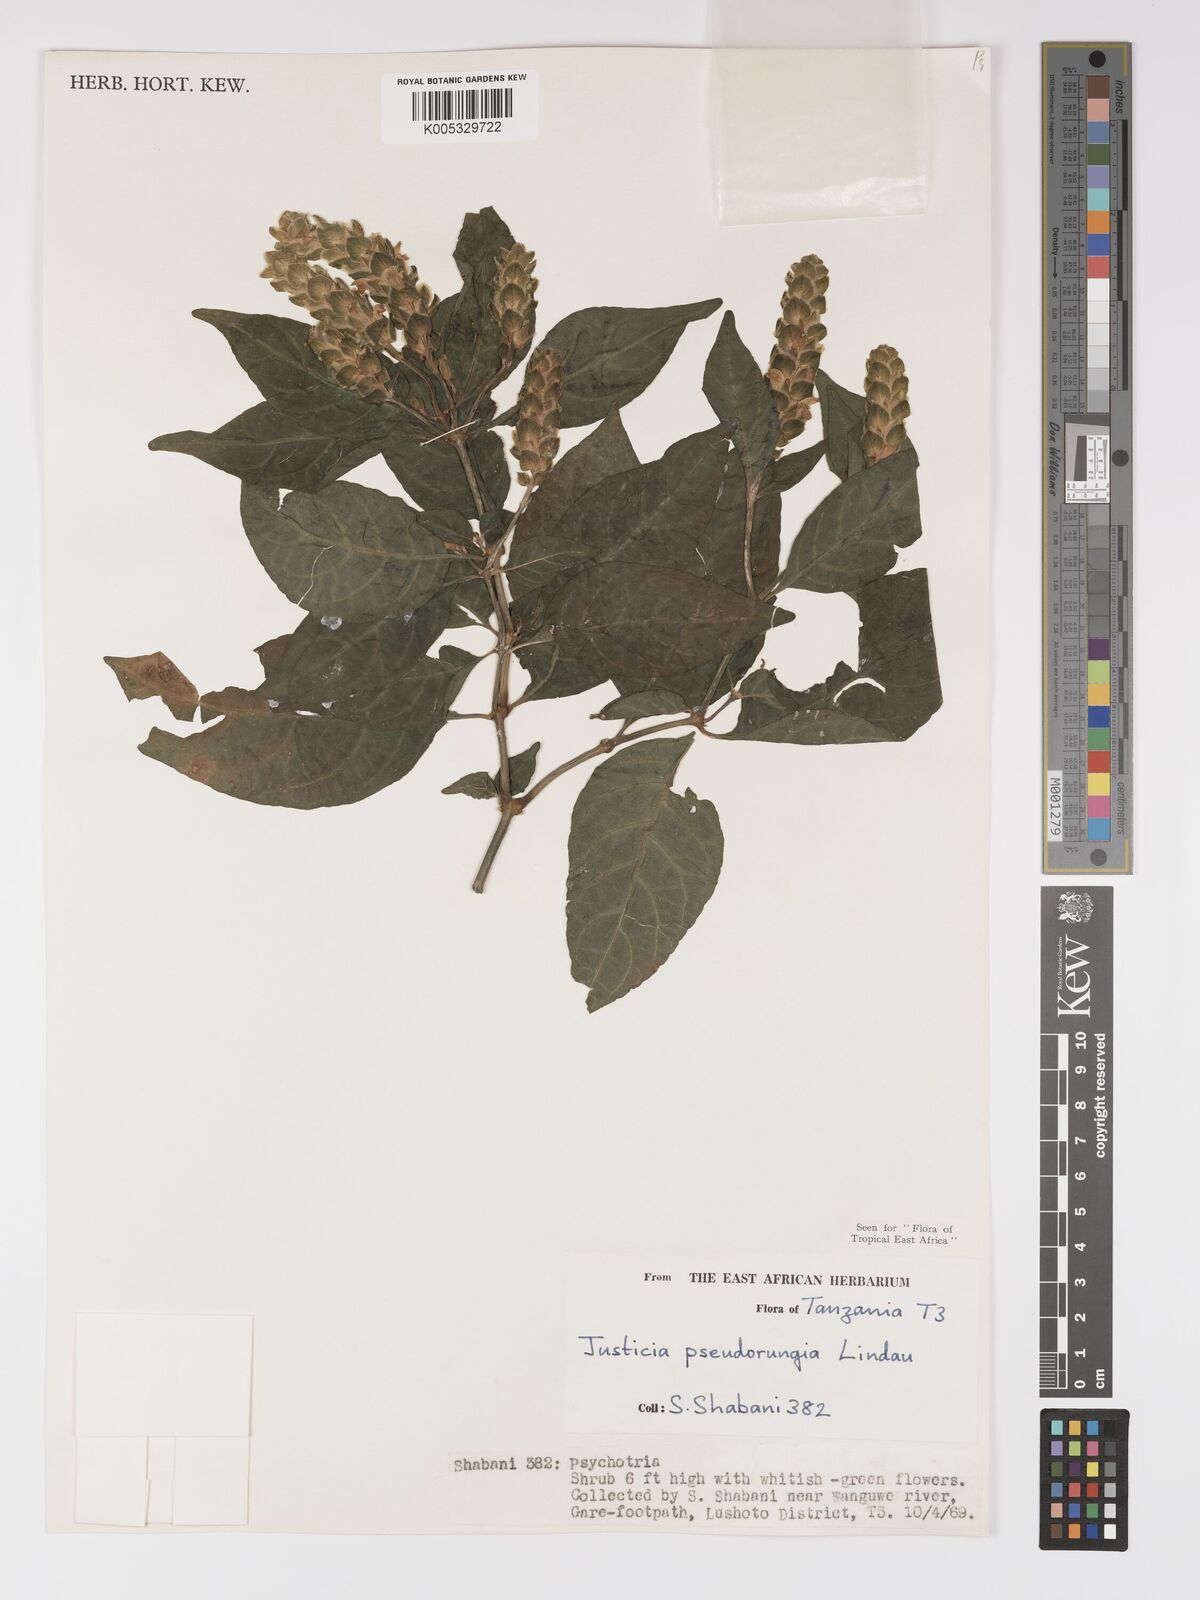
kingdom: Plantae
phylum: Tracheophyta
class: Magnoliopsida
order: Lamiales
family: Acanthaceae
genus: Justicia
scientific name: Justicia pseudorungia
